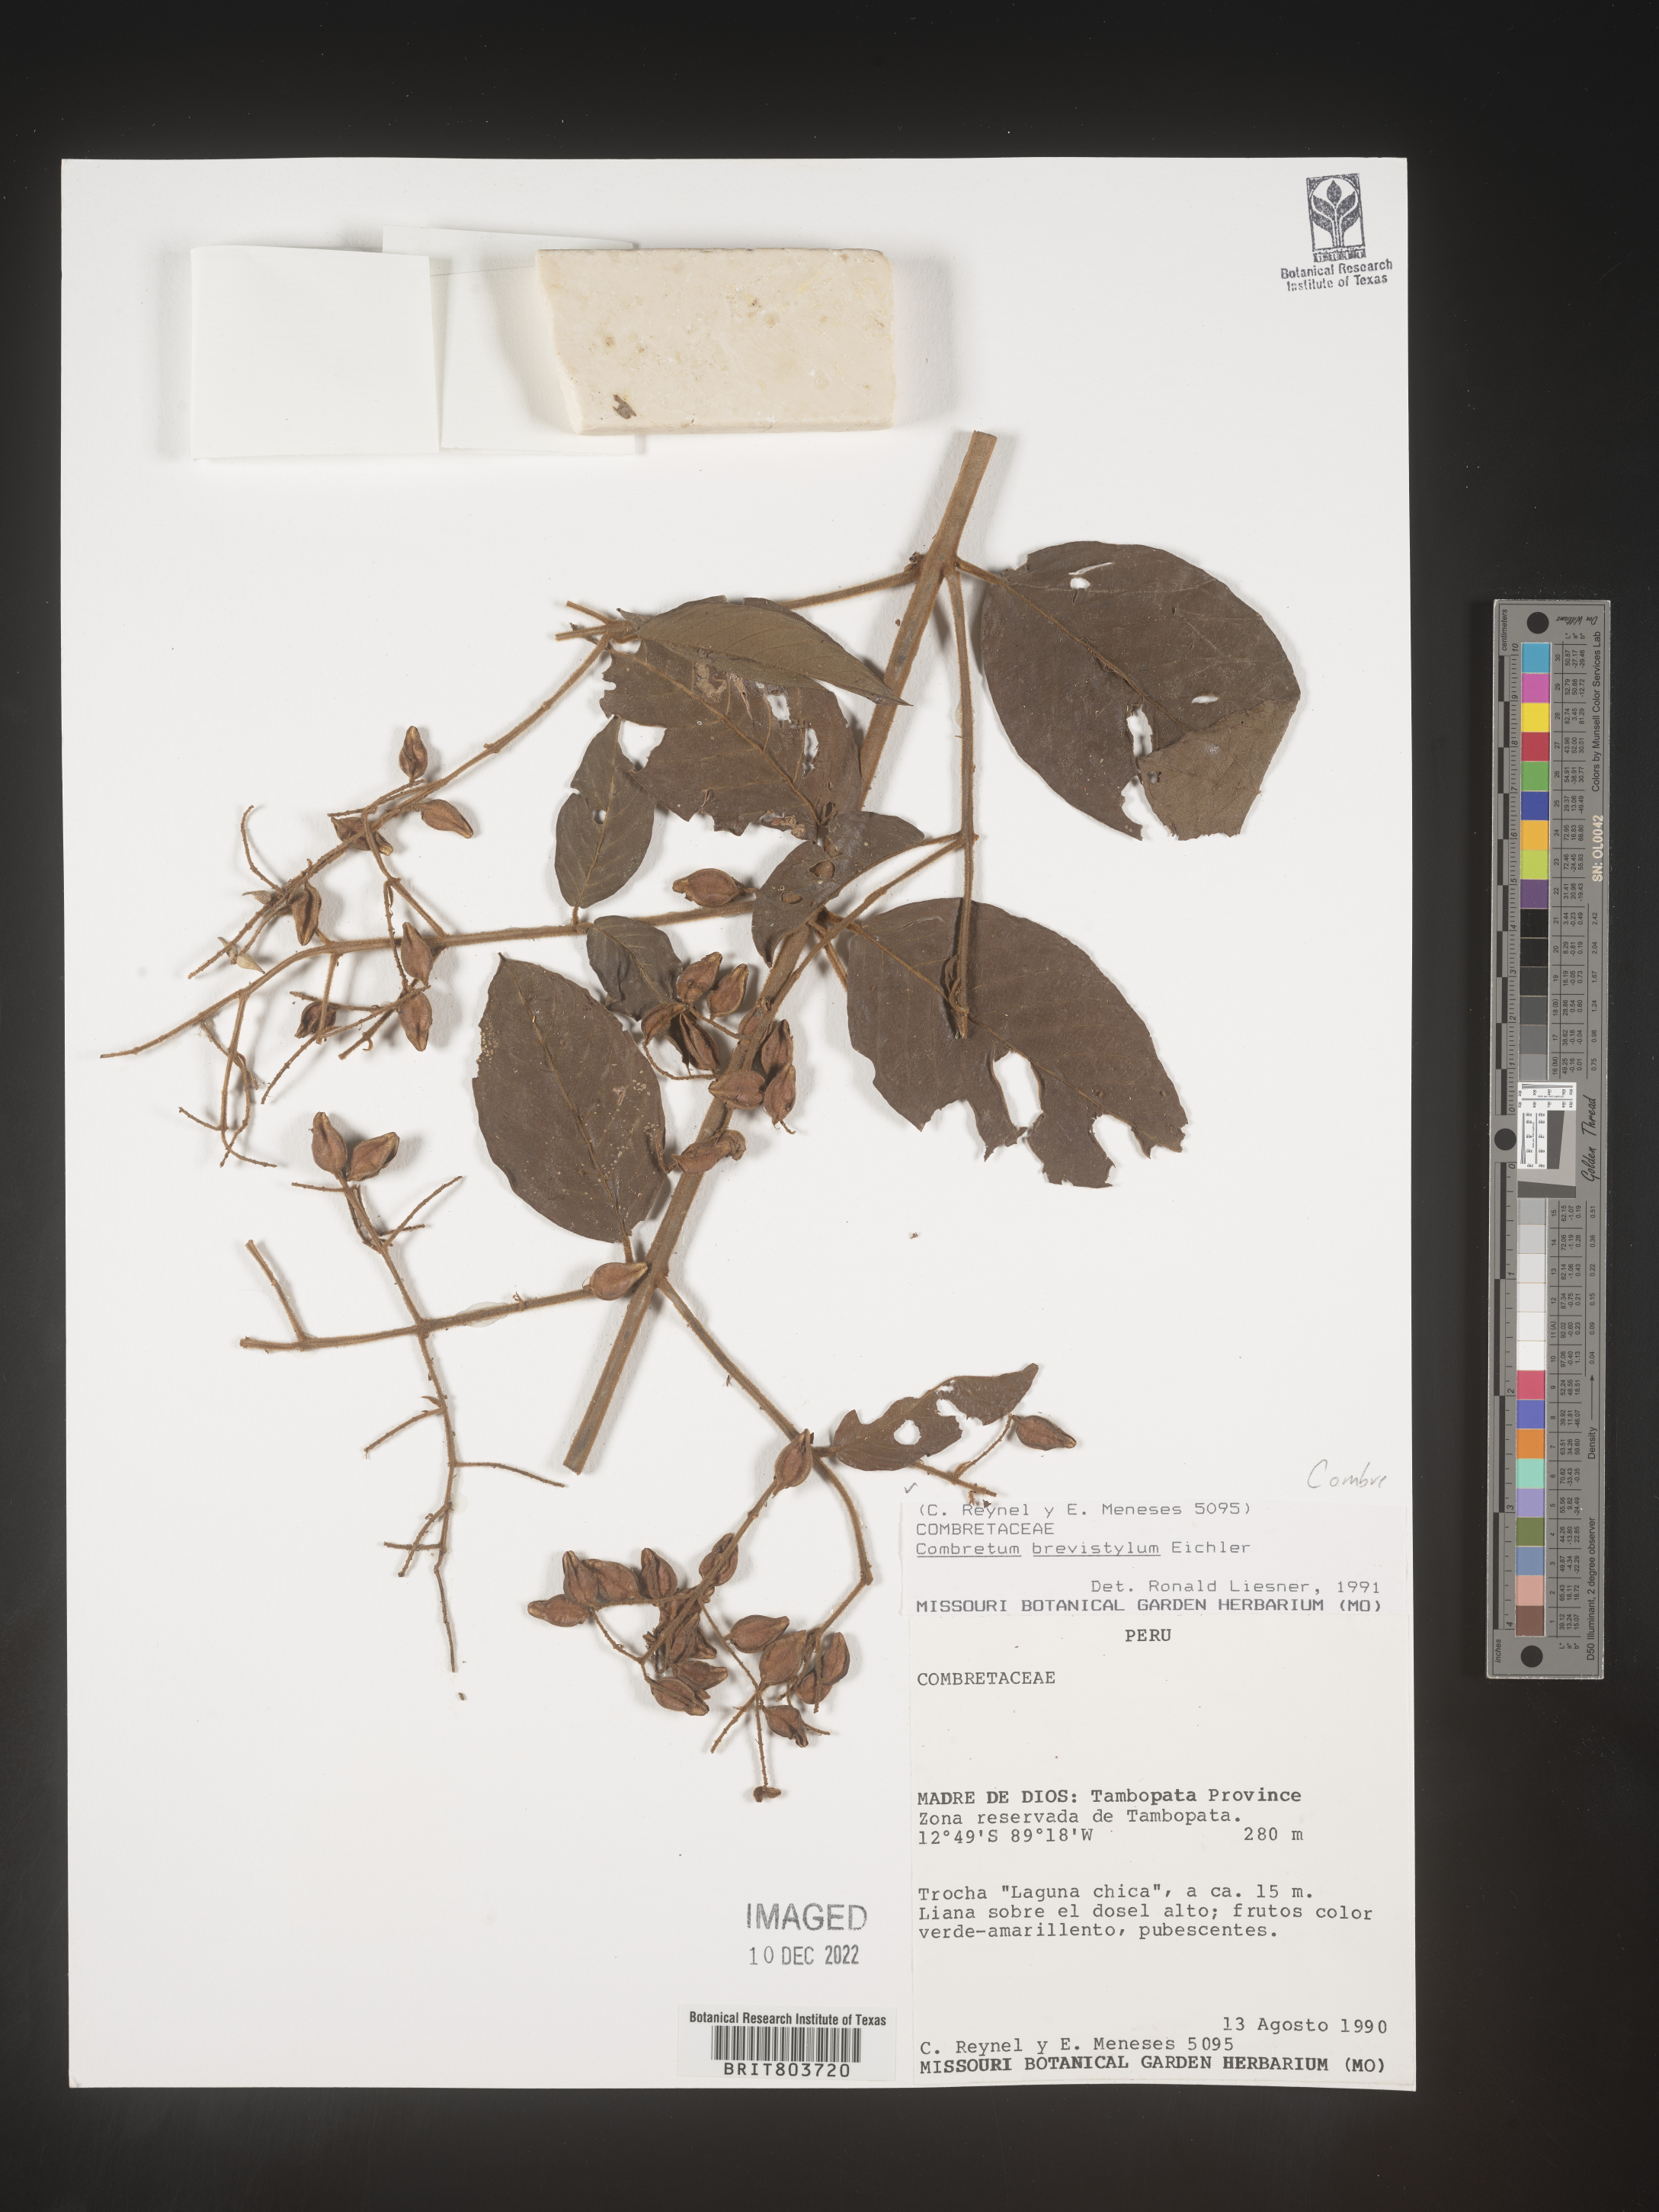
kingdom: Plantae
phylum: Tracheophyta
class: Magnoliopsida
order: Myrtales
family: Combretaceae
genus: Combretum
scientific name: Combretum
